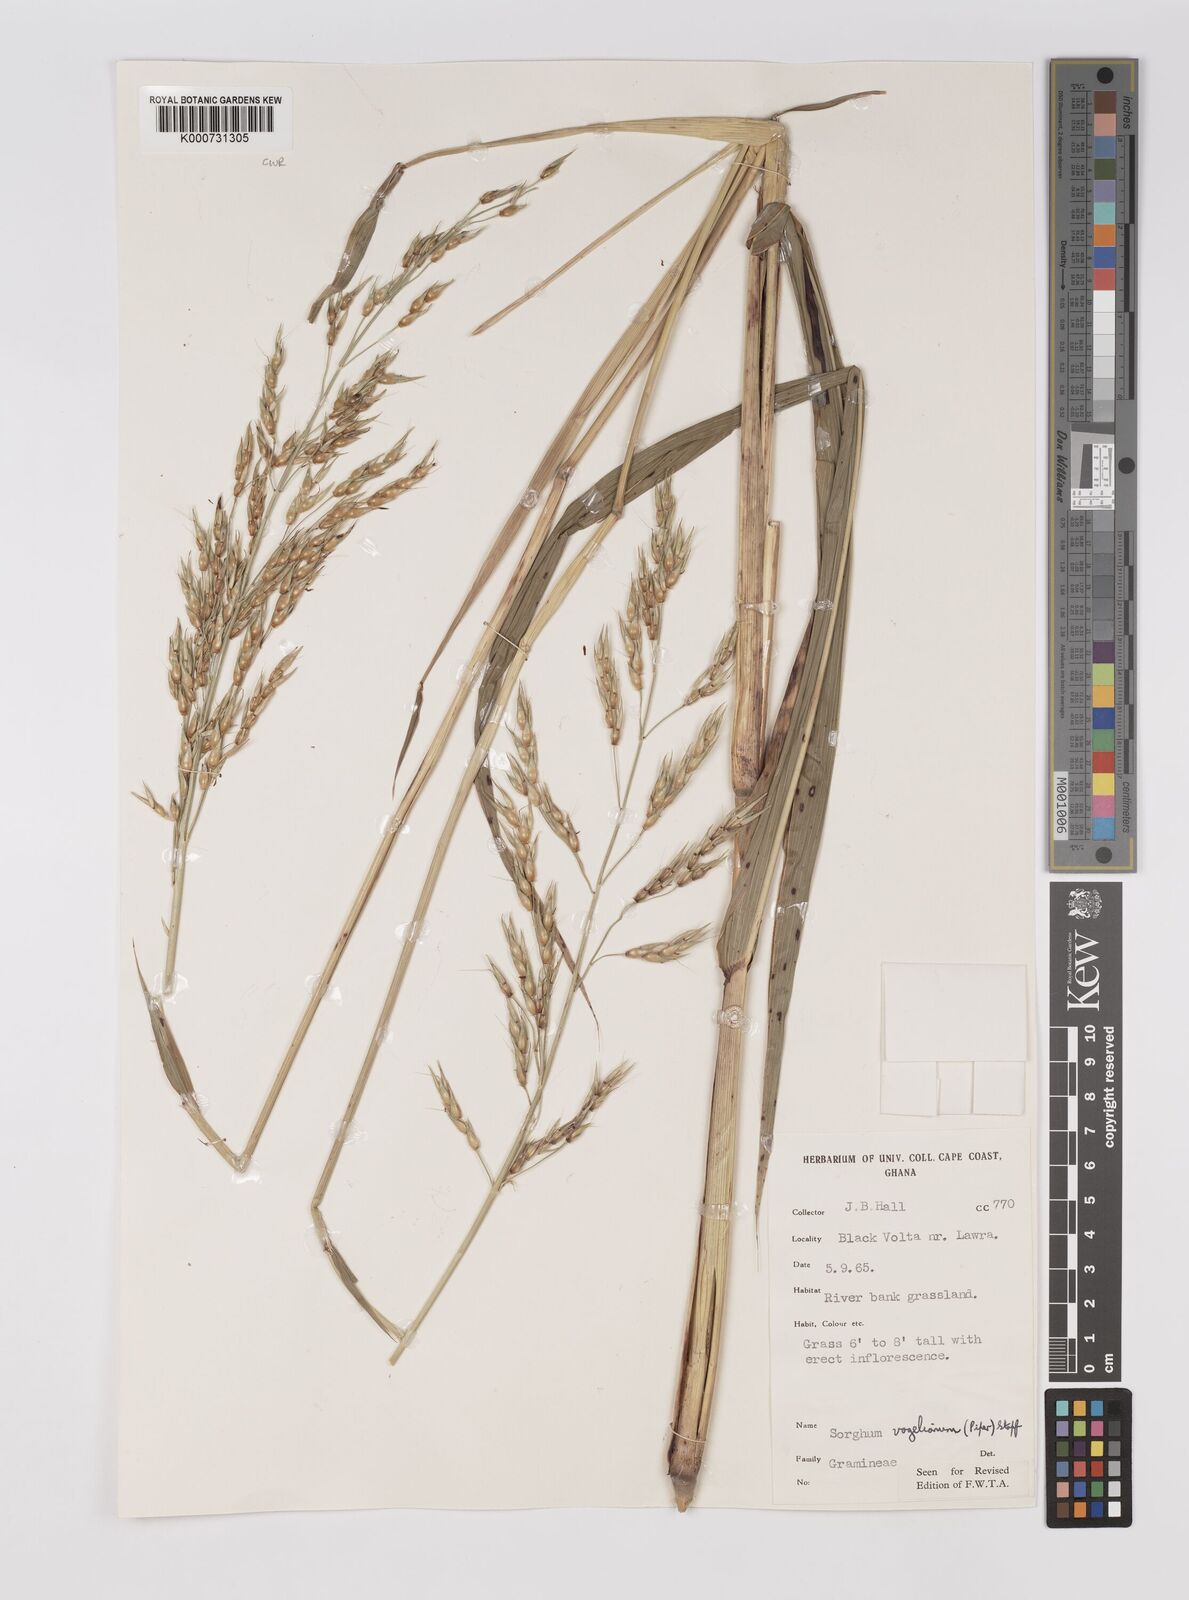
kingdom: Plantae
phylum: Tracheophyta
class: Liliopsida
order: Poales
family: Poaceae
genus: Sorghum
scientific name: Sorghum arundinaceum
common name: Sorghum
